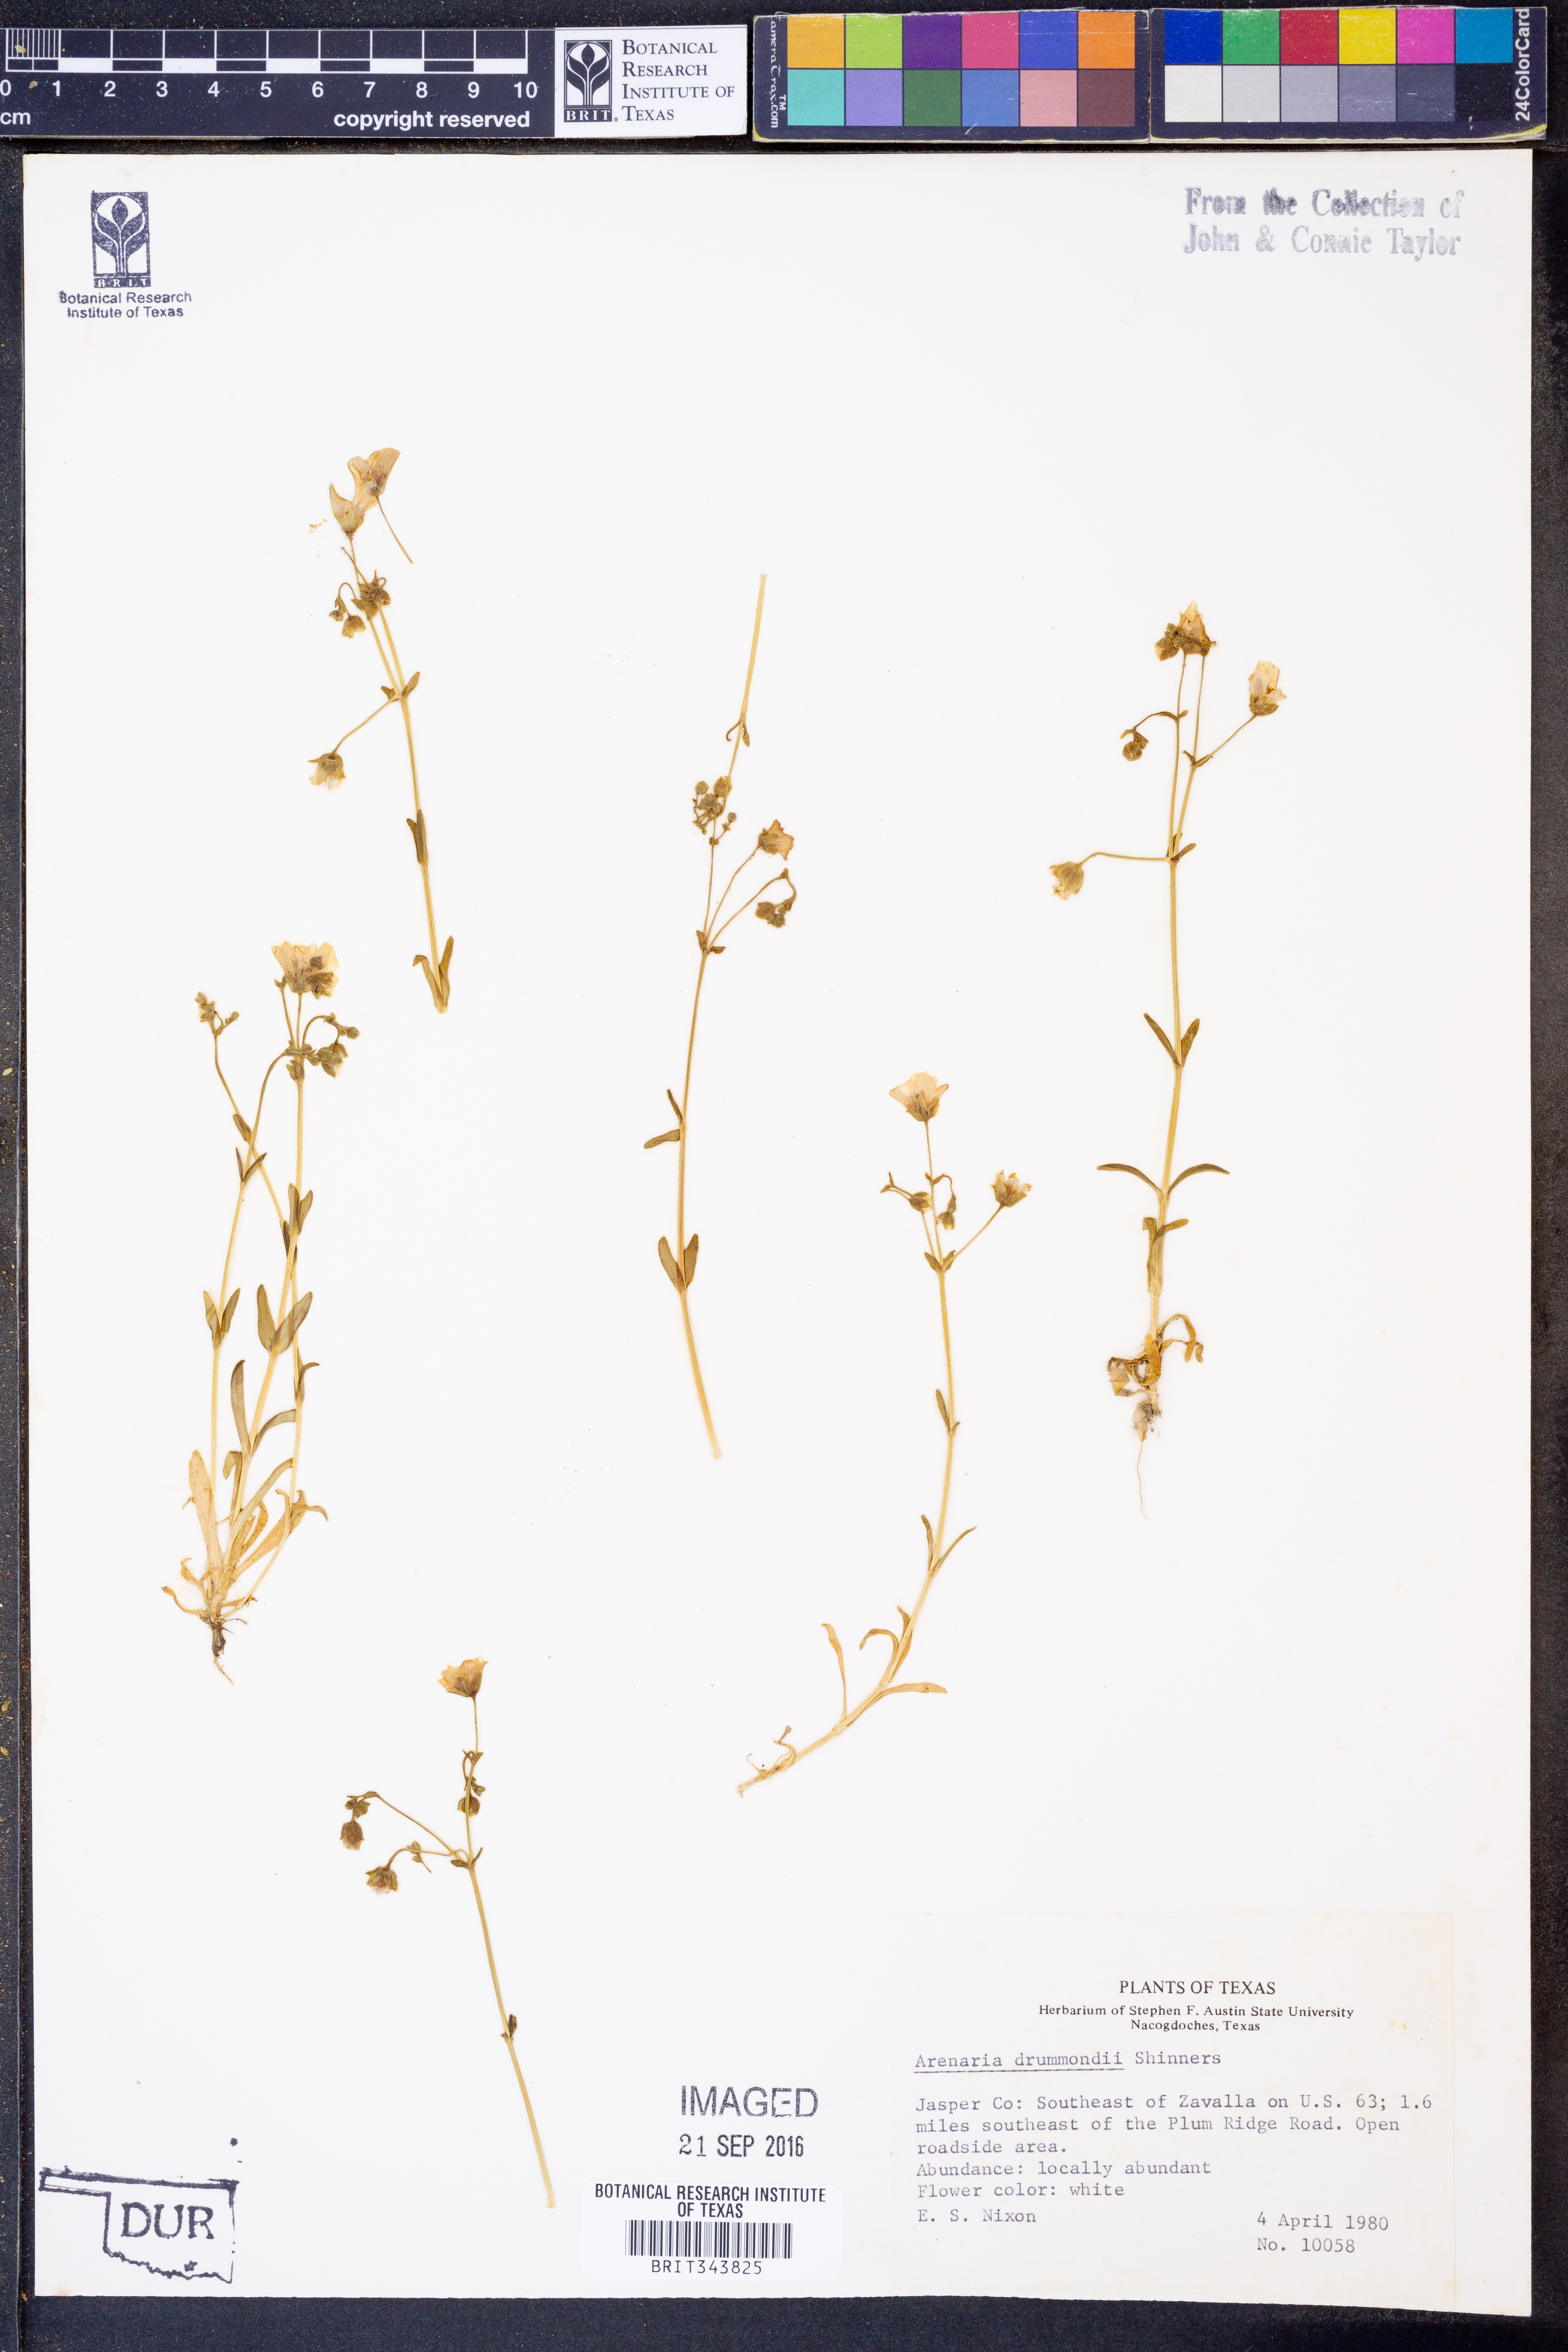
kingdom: Plantae
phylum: Tracheophyta
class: Magnoliopsida
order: Caryophyllales
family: Caryophyllaceae
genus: Geocarpon
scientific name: Geocarpon nuttallii
